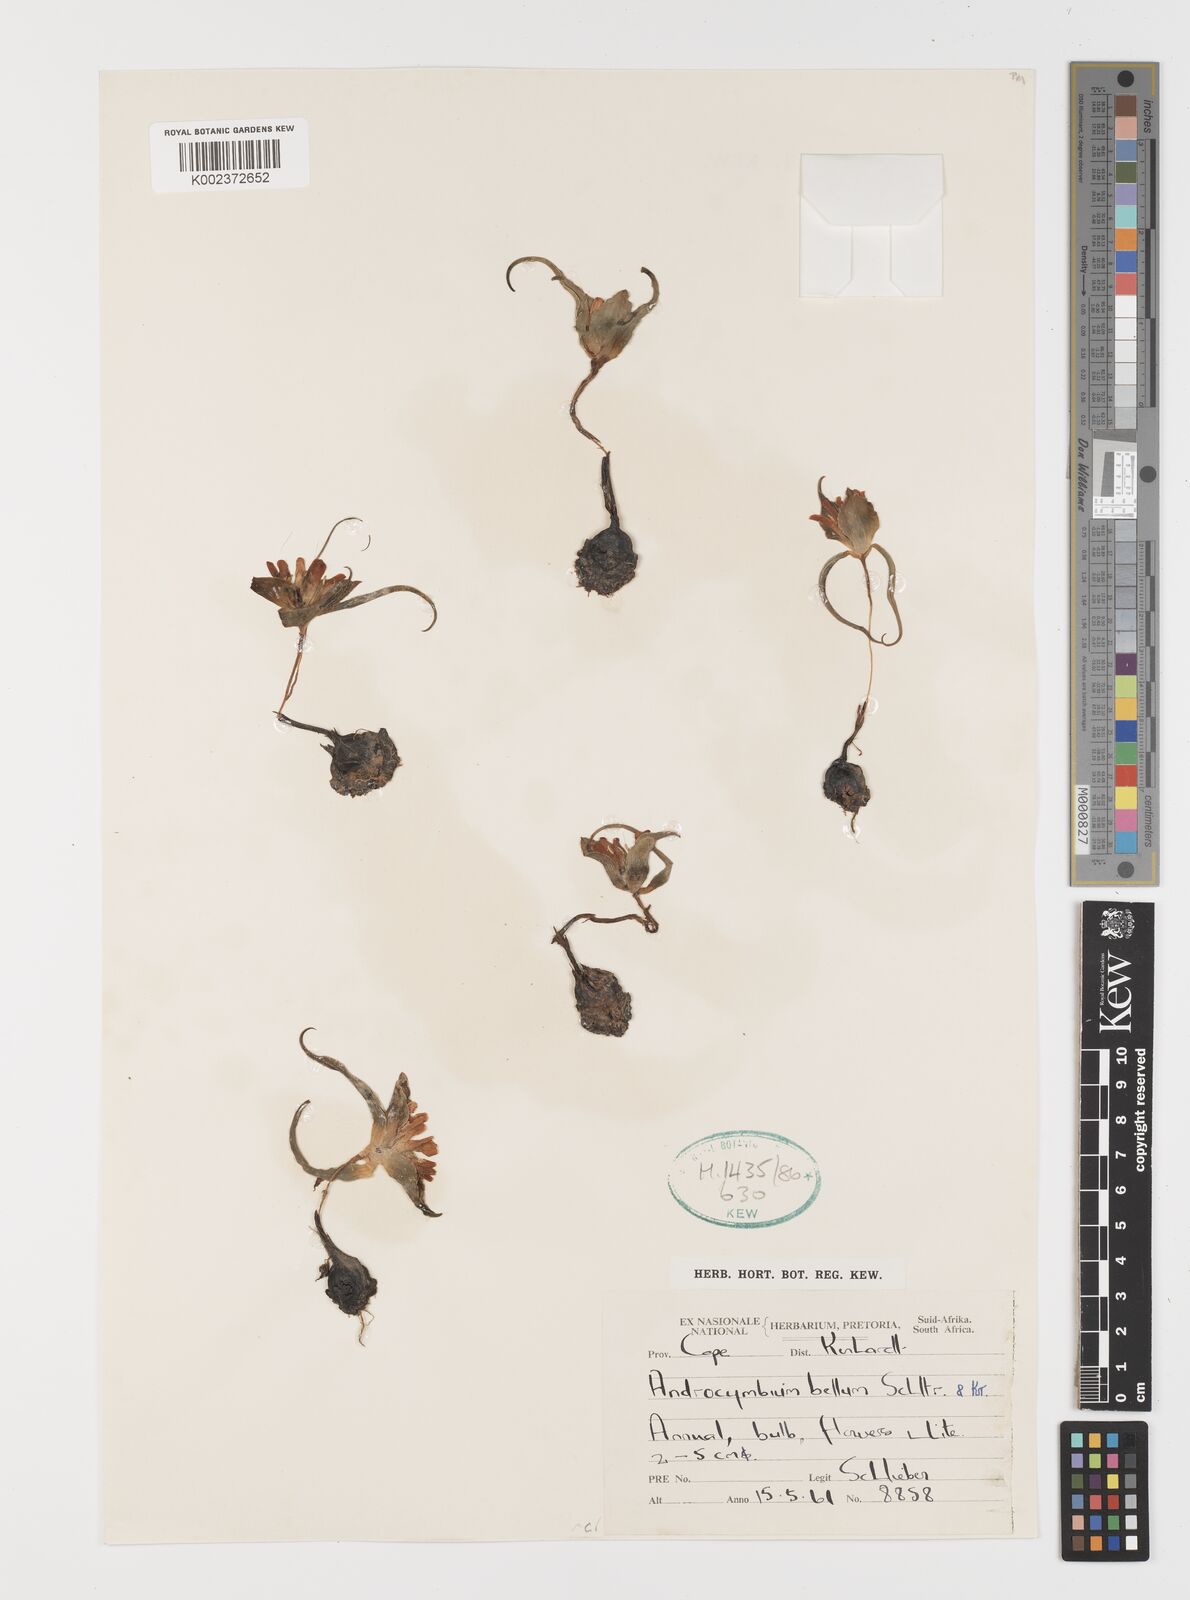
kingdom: Plantae
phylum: Tracheophyta
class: Liliopsida
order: Liliales
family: Colchicaceae
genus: Colchicum
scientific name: Colchicum bellum
